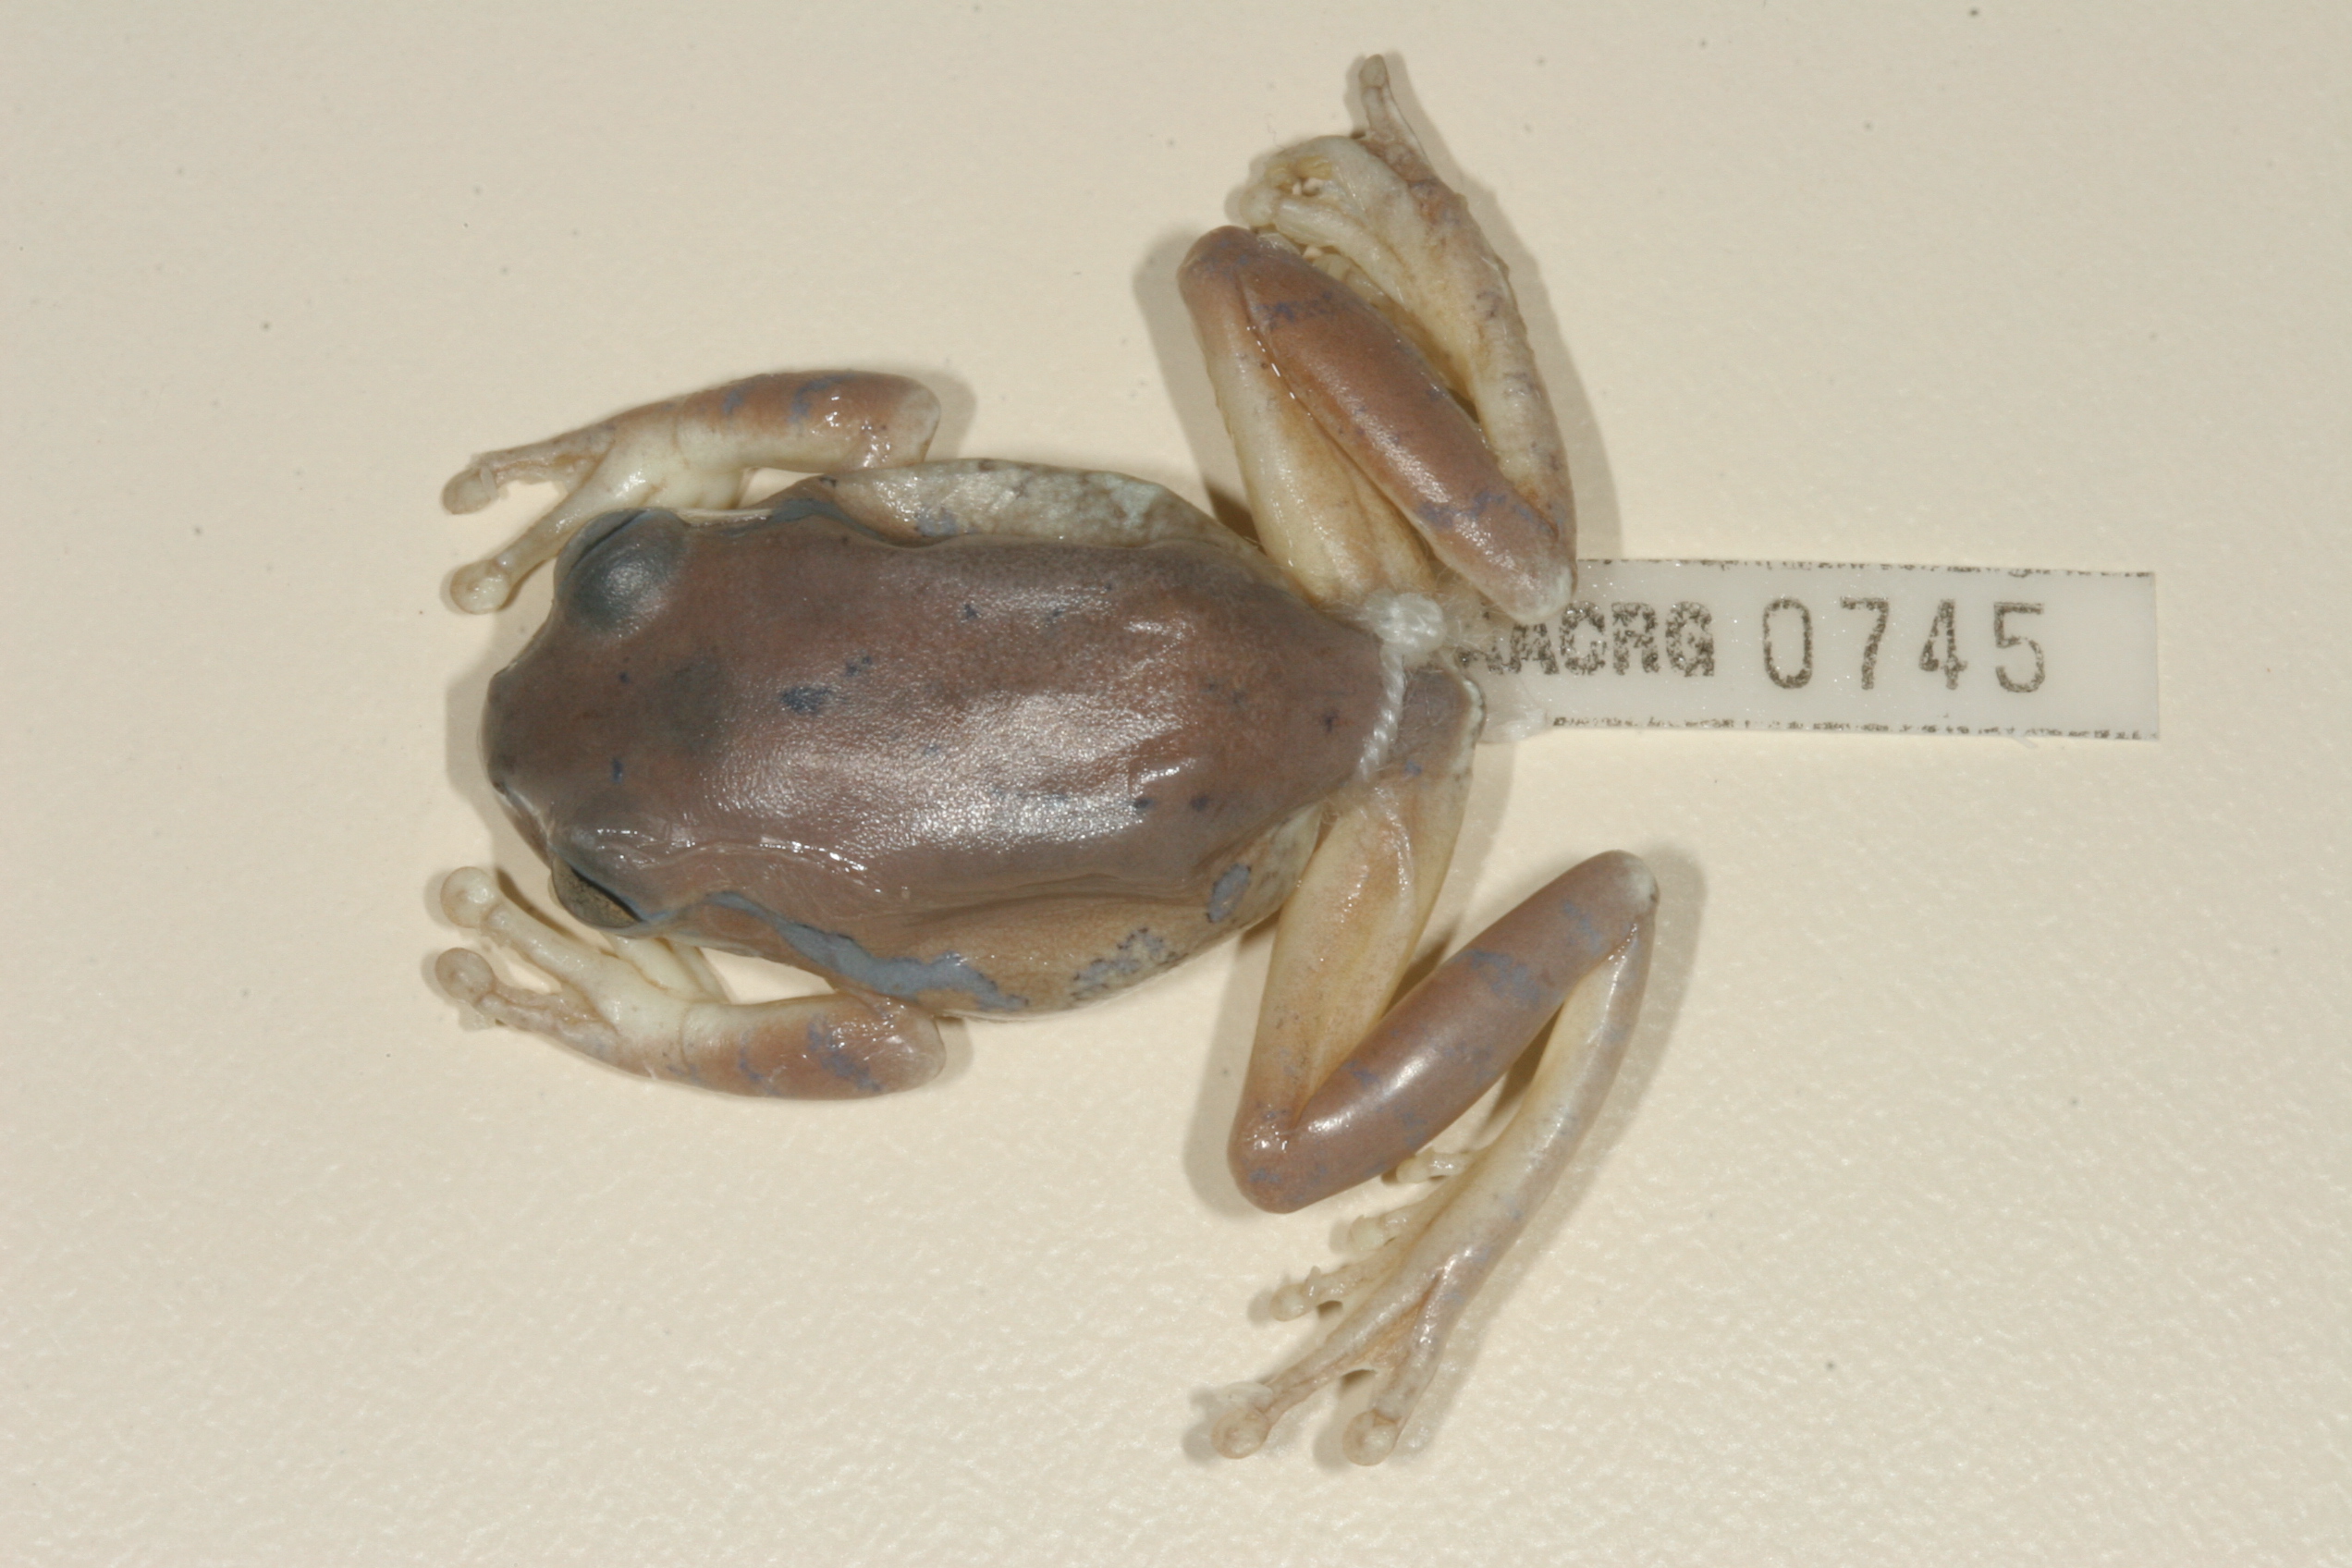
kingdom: Animalia
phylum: Chordata
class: Amphibia
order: Anura
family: Arthroleptidae
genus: Leptopelis
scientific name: Leptopelis natalensis
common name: Natal tree frog
